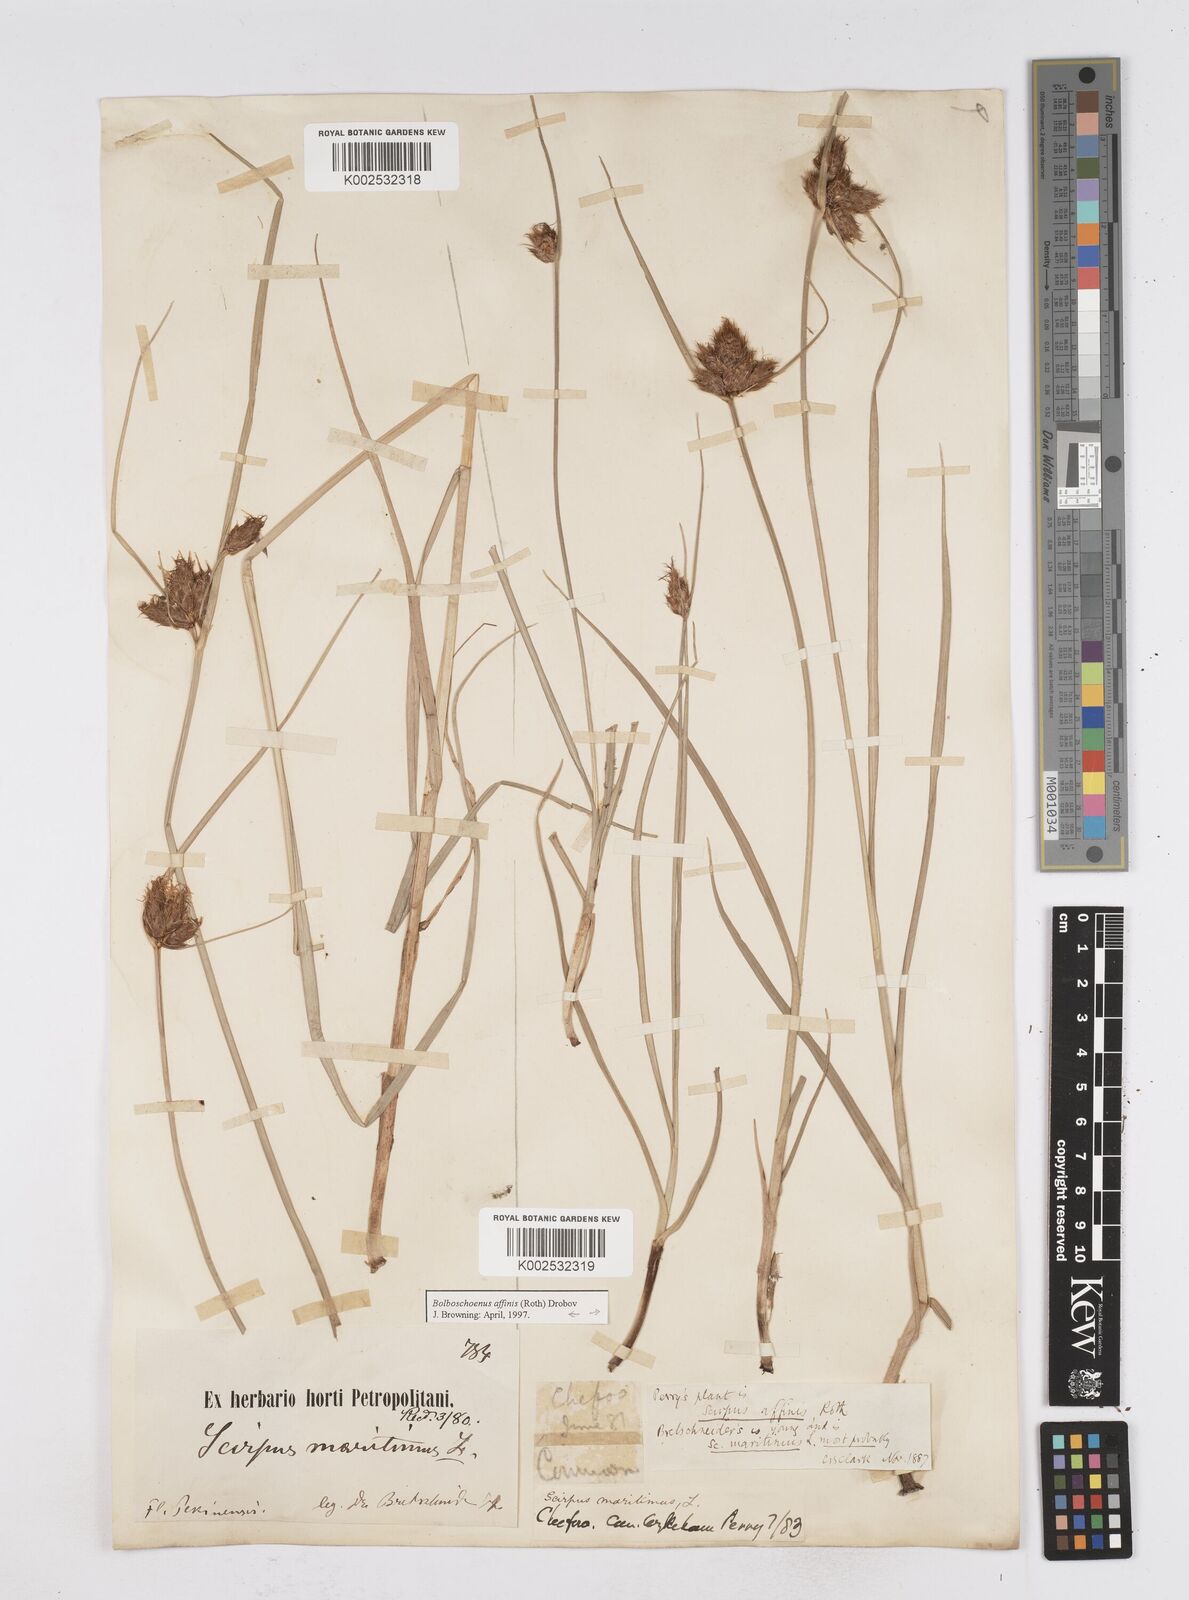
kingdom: Plantae
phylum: Tracheophyta
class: Liliopsida
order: Poales
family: Cyperaceae
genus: Bolboschoenus
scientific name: Bolboschoenus maritimus
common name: Sea club-rush
